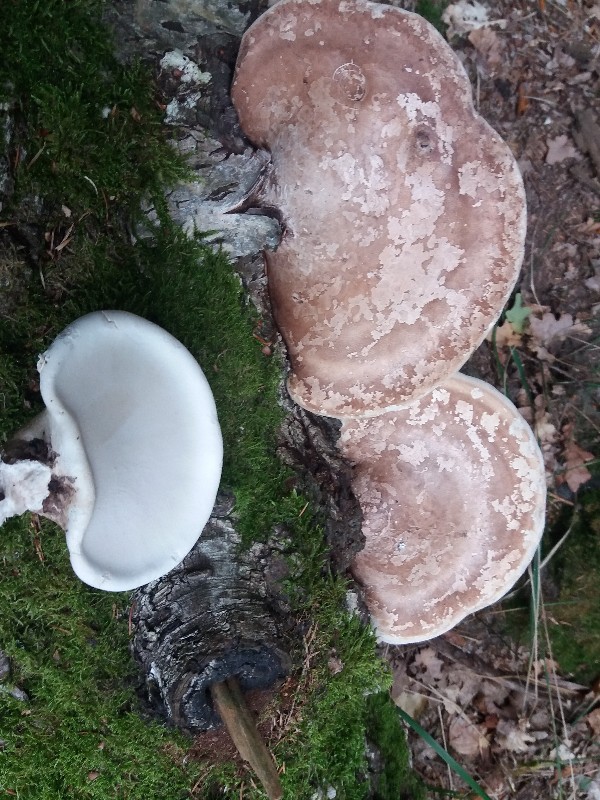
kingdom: Fungi
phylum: Basidiomycota
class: Agaricomycetes
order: Polyporales
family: Fomitopsidaceae
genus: Fomitopsis
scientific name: Fomitopsis betulina
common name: birkeporesvamp
